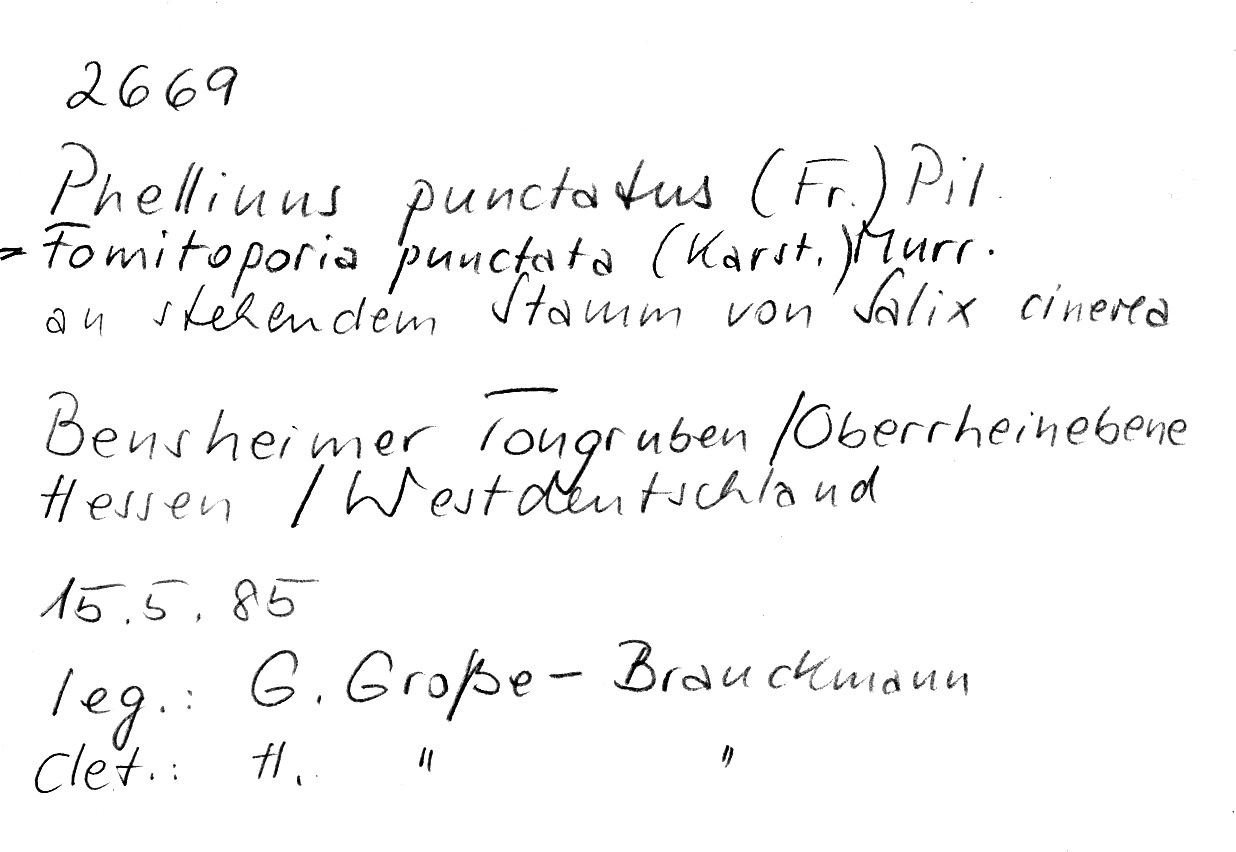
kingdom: Fungi
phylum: Basidiomycota
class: Agaricomycetes
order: Hymenochaetales
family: Hymenochaetaceae
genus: Fomitiporia
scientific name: Fomitiporia punctata
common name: Elbowpatch crust
